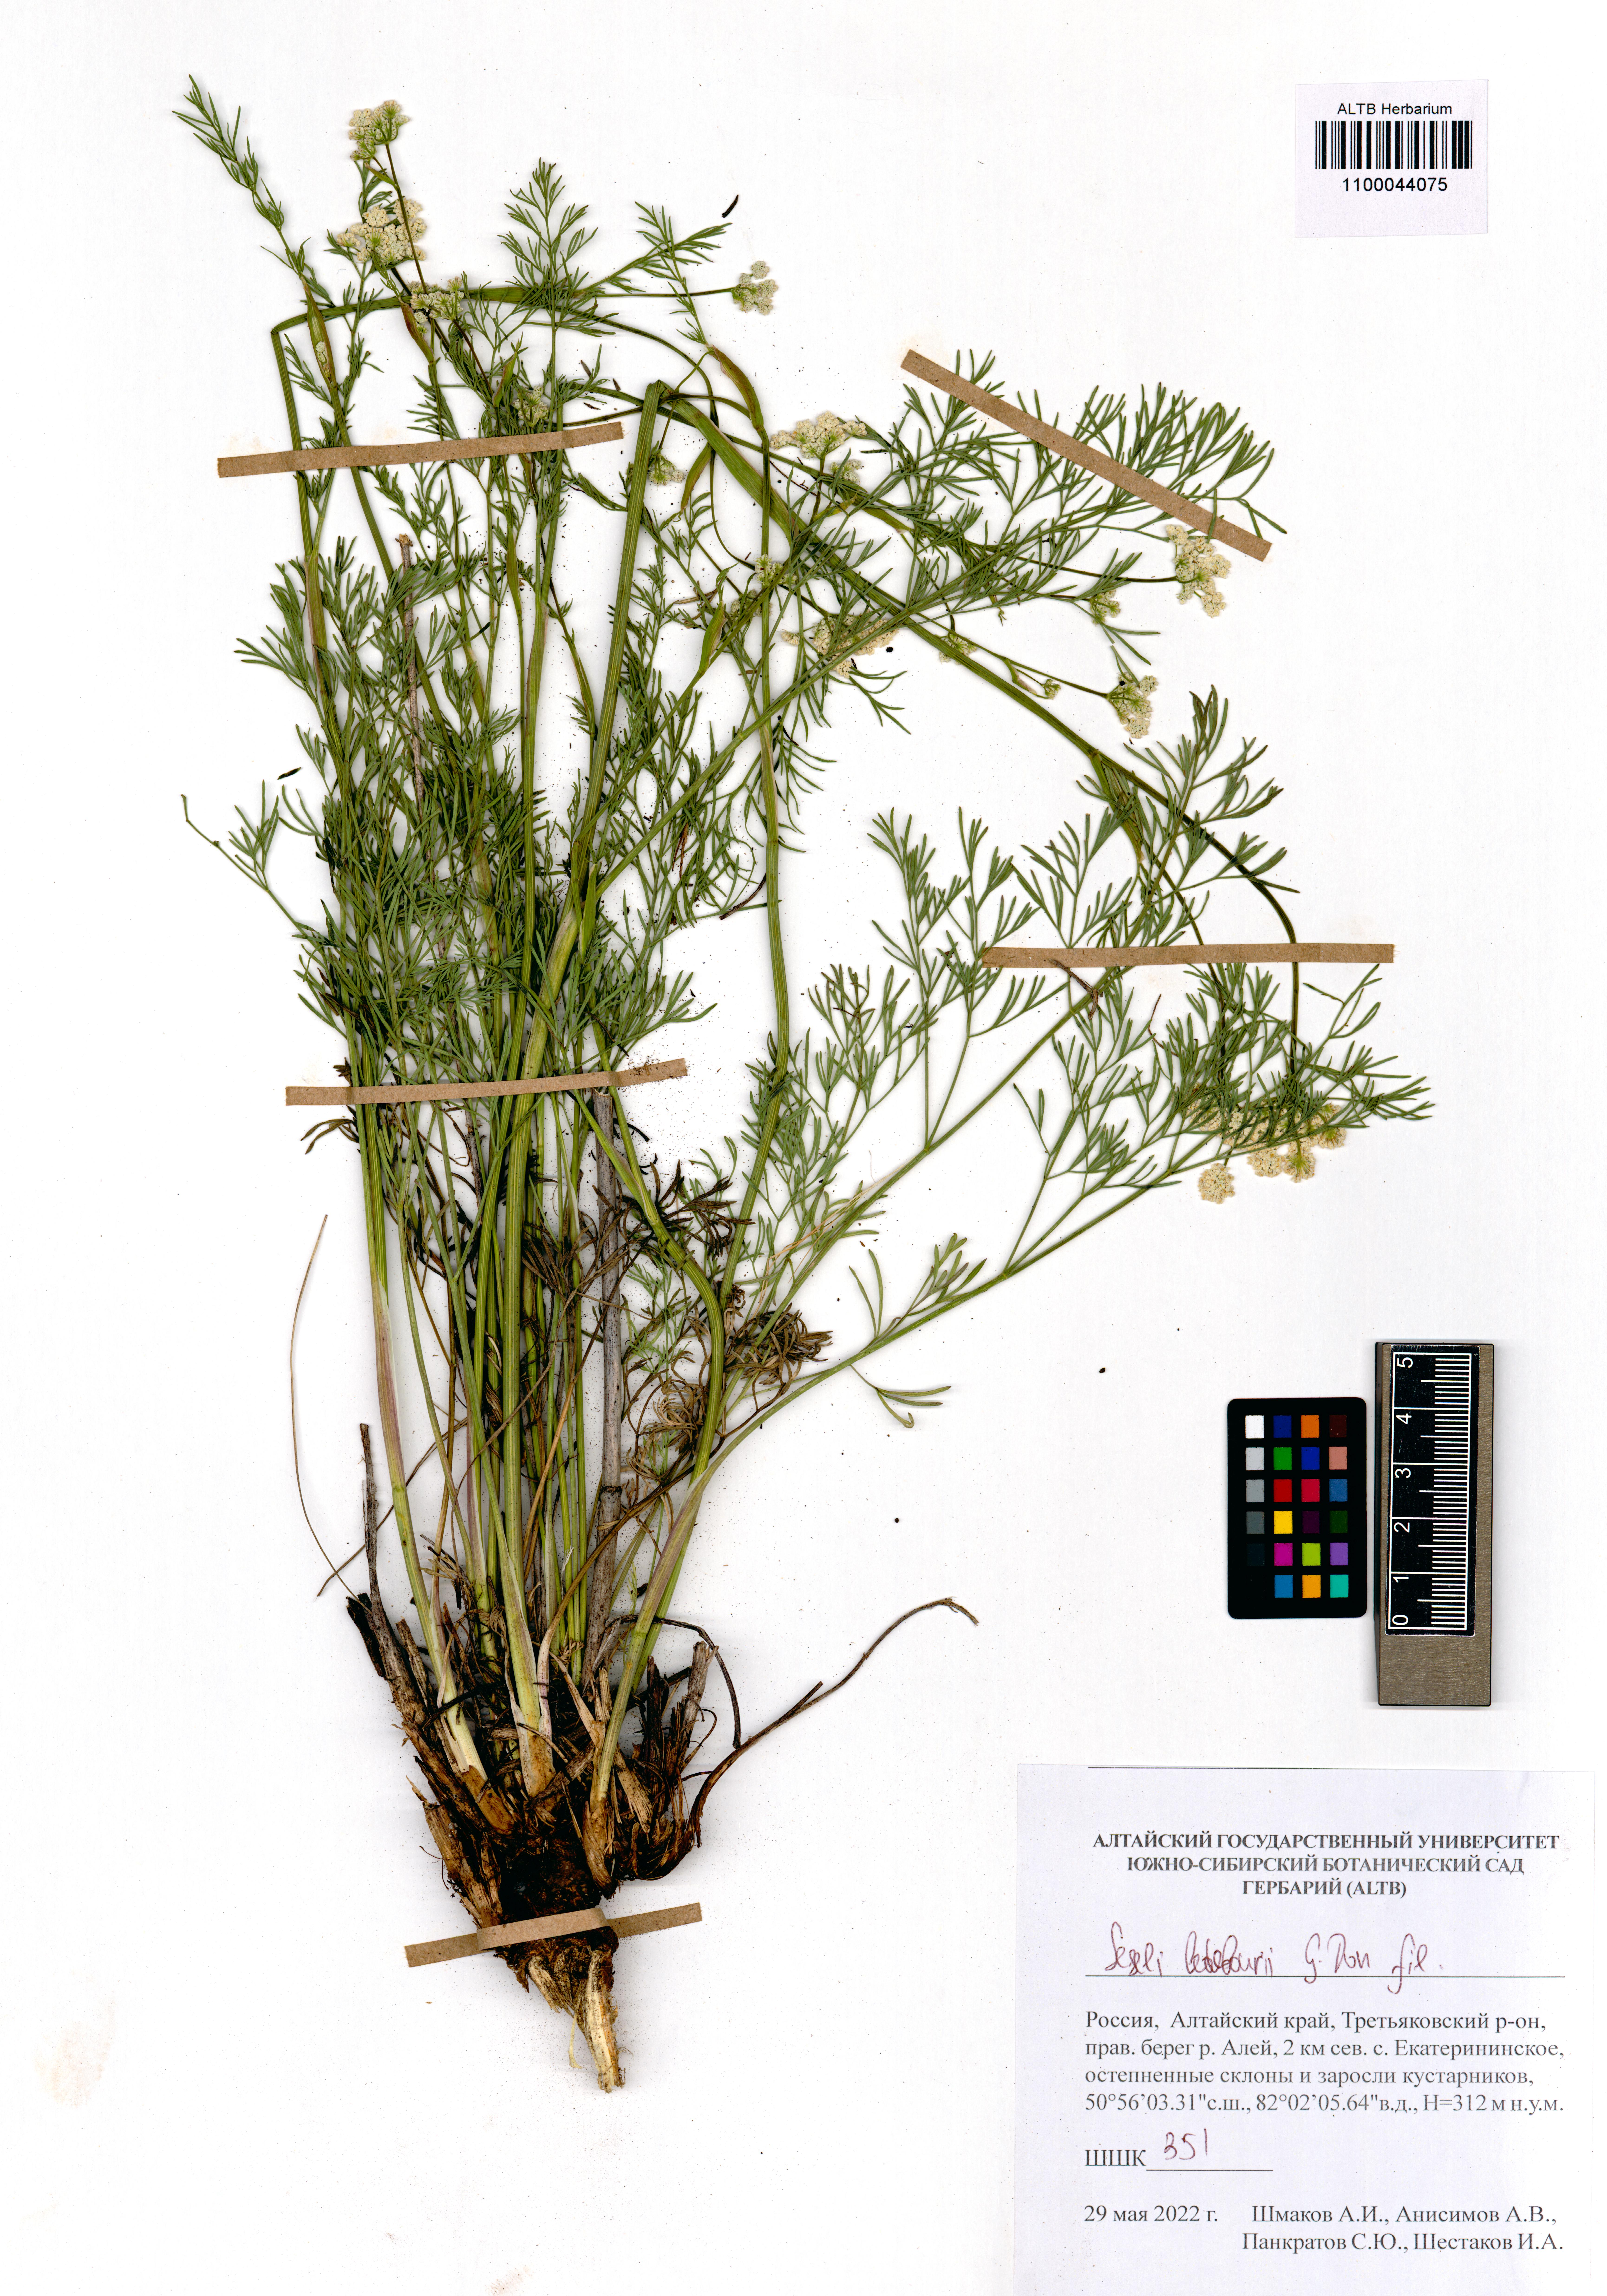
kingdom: Plantae
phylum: Tracheophyta
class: Magnoliopsida
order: Apiales
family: Apiaceae
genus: Seseli
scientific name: Seseli ledebourii
